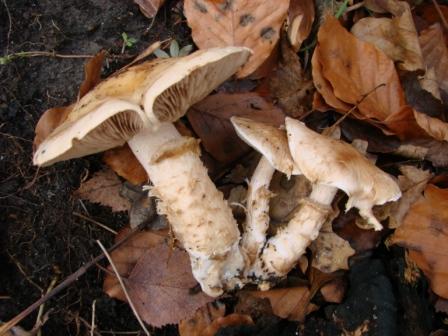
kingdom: Fungi
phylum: Basidiomycota
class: Agaricomycetes
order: Agaricales
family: Hymenogastraceae
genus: Hebeloma
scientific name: Hebeloma radicosum
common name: pælerods-tåreblad
